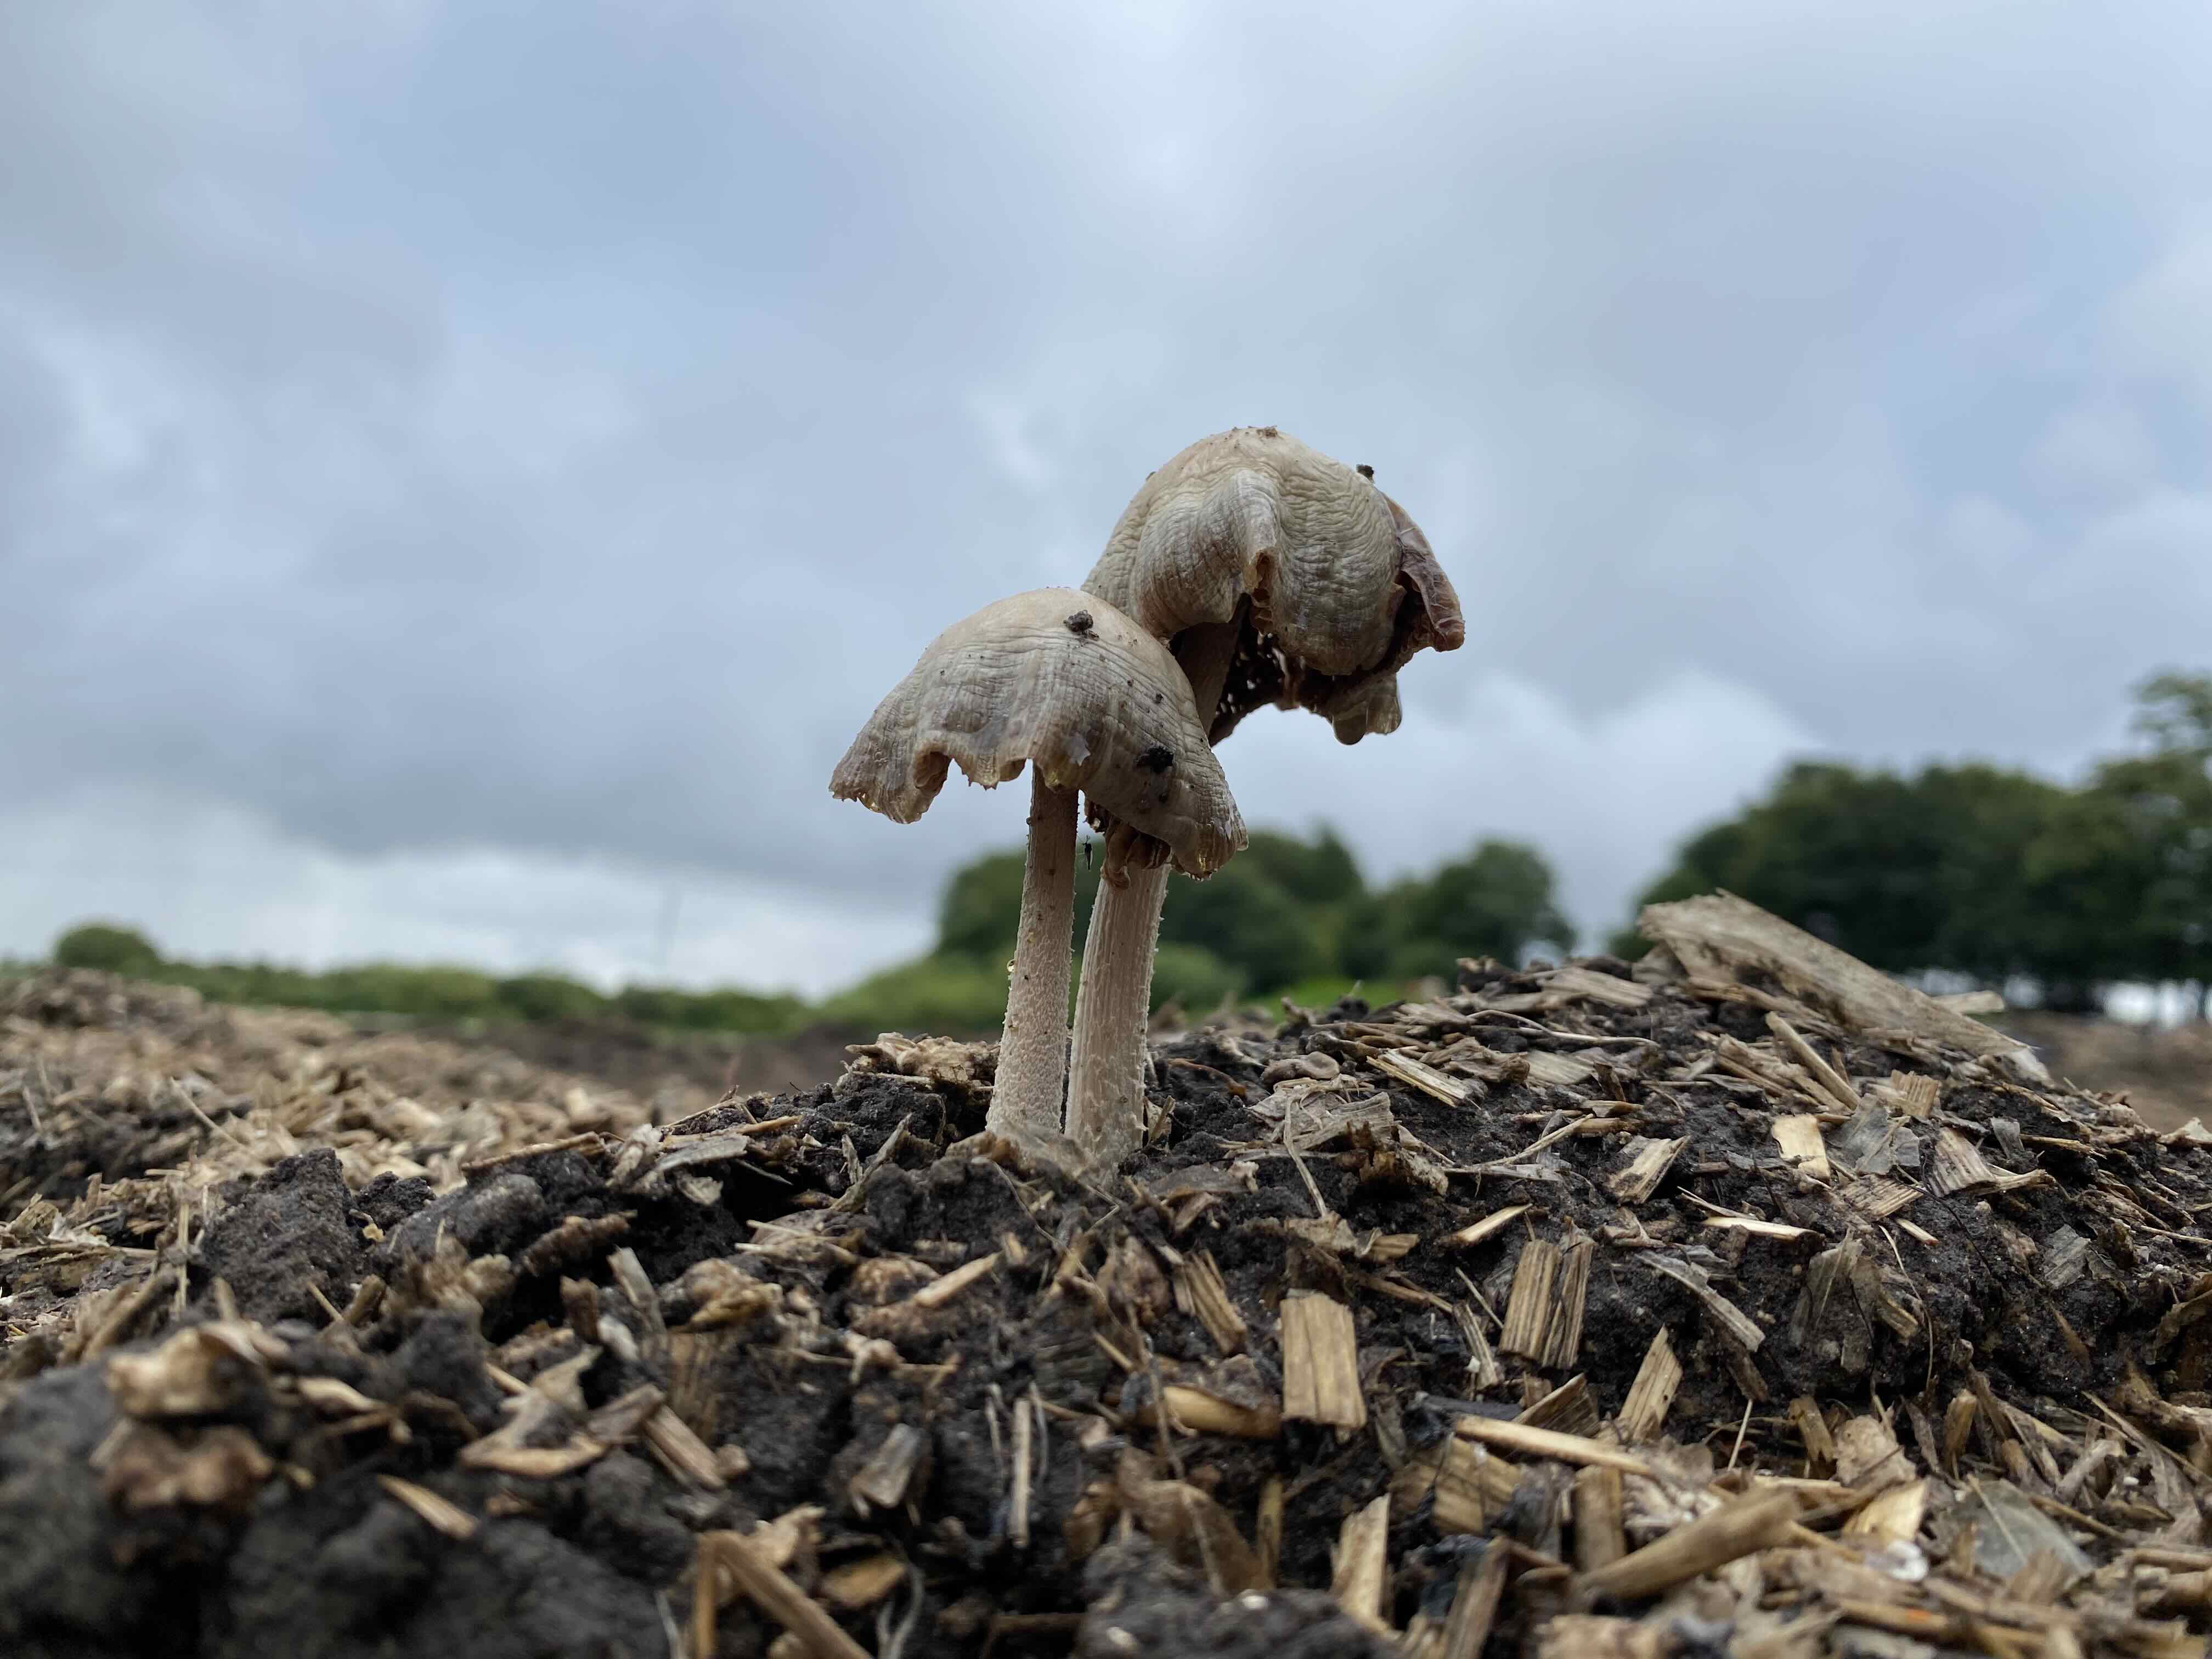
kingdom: Fungi
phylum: Basidiomycota
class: Agaricomycetes
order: Agaricales
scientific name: Agaricales
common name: champignonordenen
